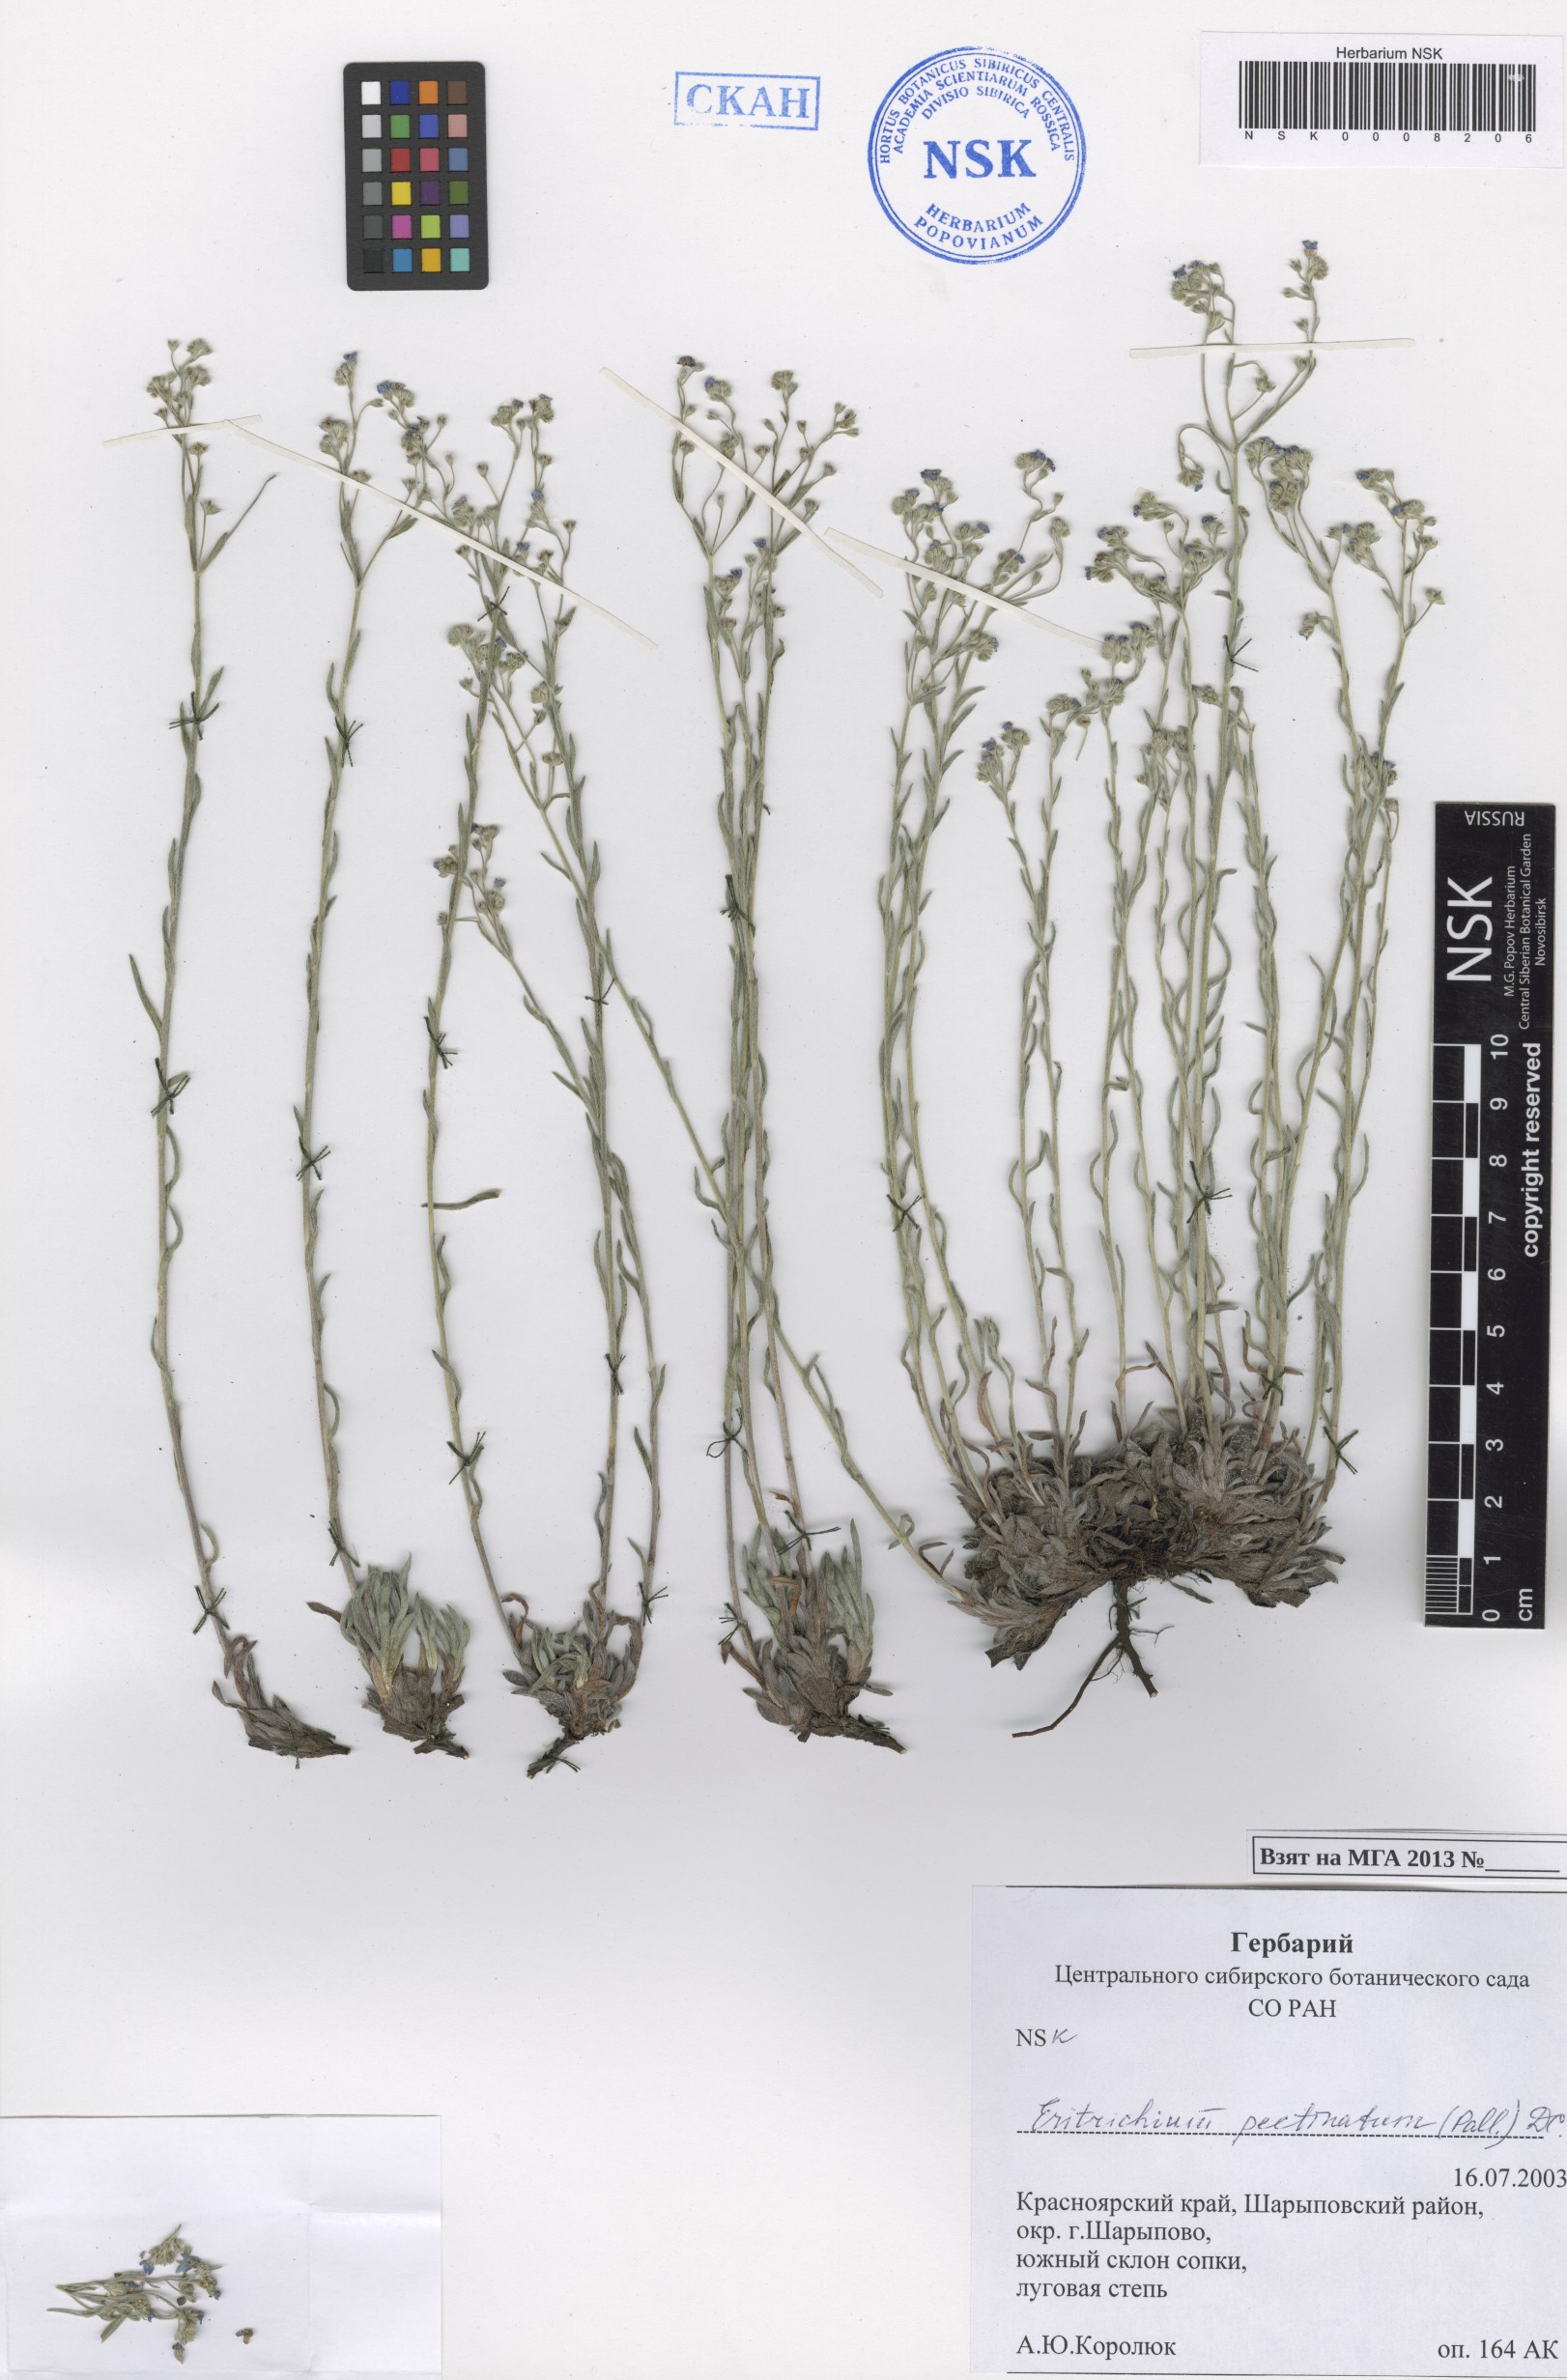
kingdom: Plantae
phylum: Tracheophyta
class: Magnoliopsida
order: Boraginales
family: Boraginaceae
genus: Eritrichium
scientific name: Eritrichium pectinatum
